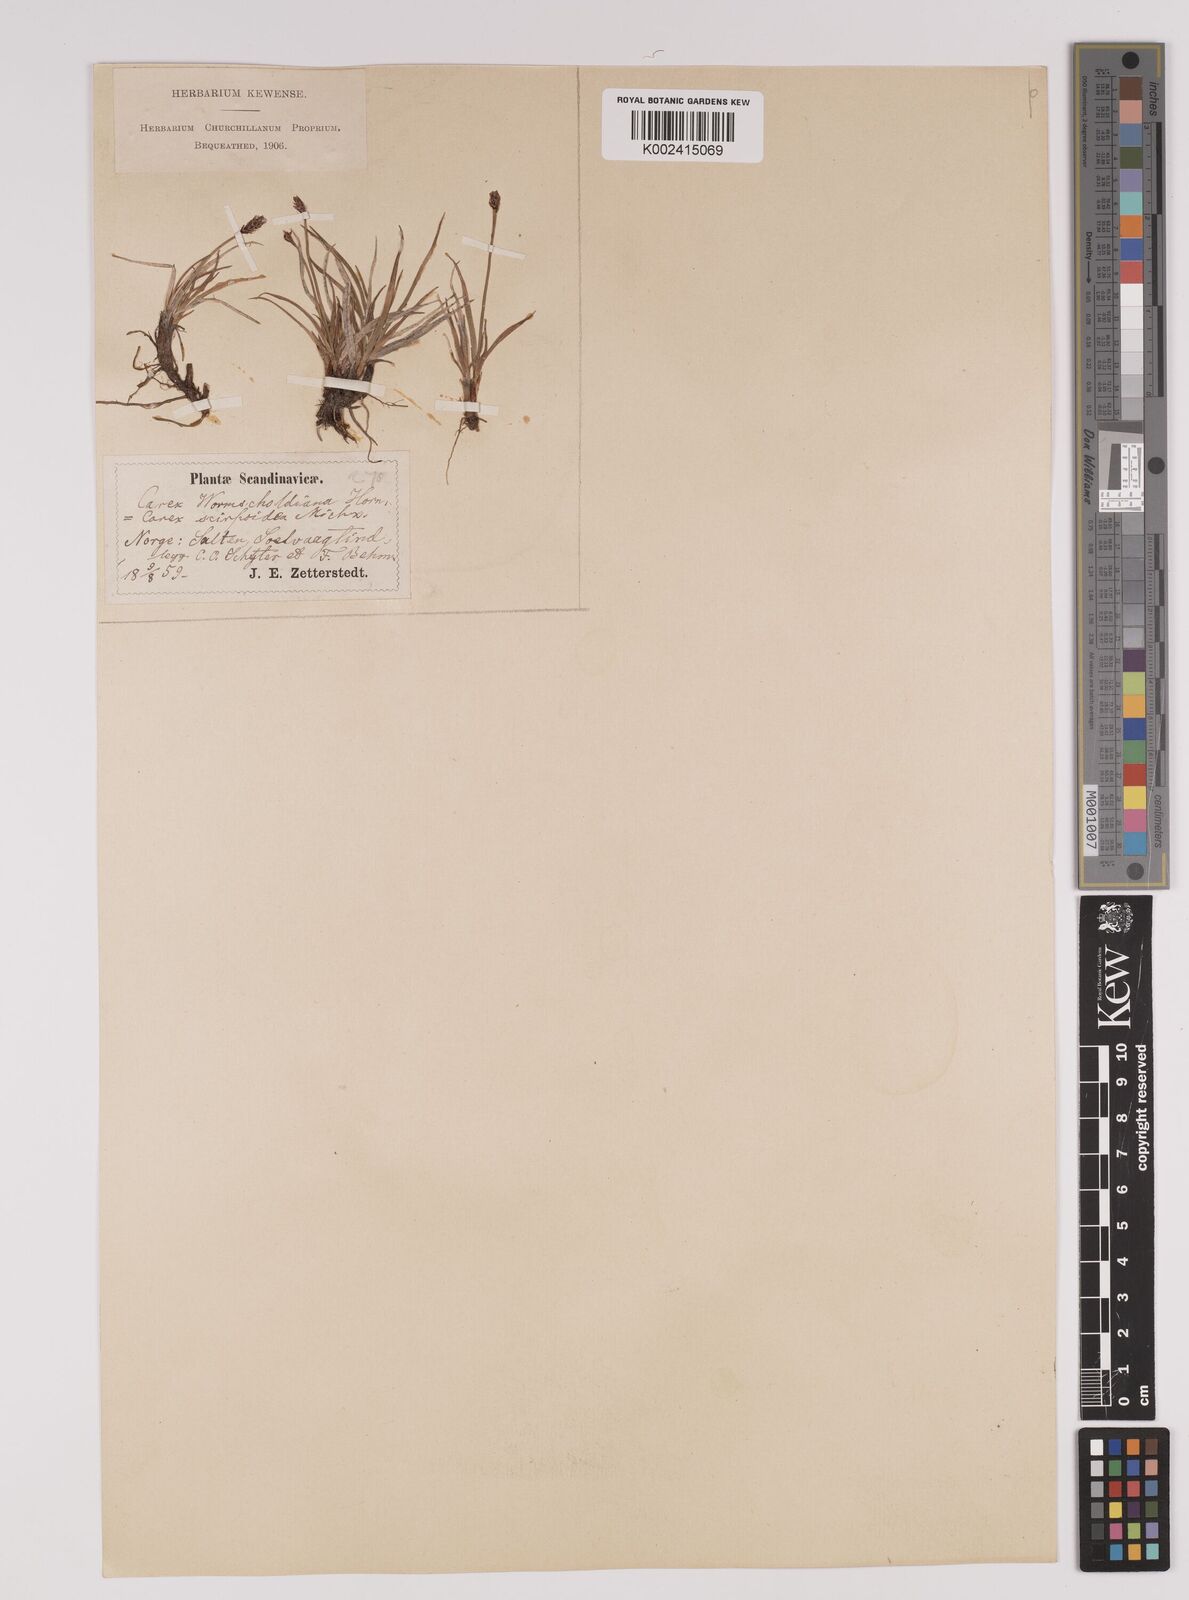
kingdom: Plantae
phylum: Tracheophyta
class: Liliopsida
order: Poales
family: Cyperaceae
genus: Carex
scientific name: Carex
